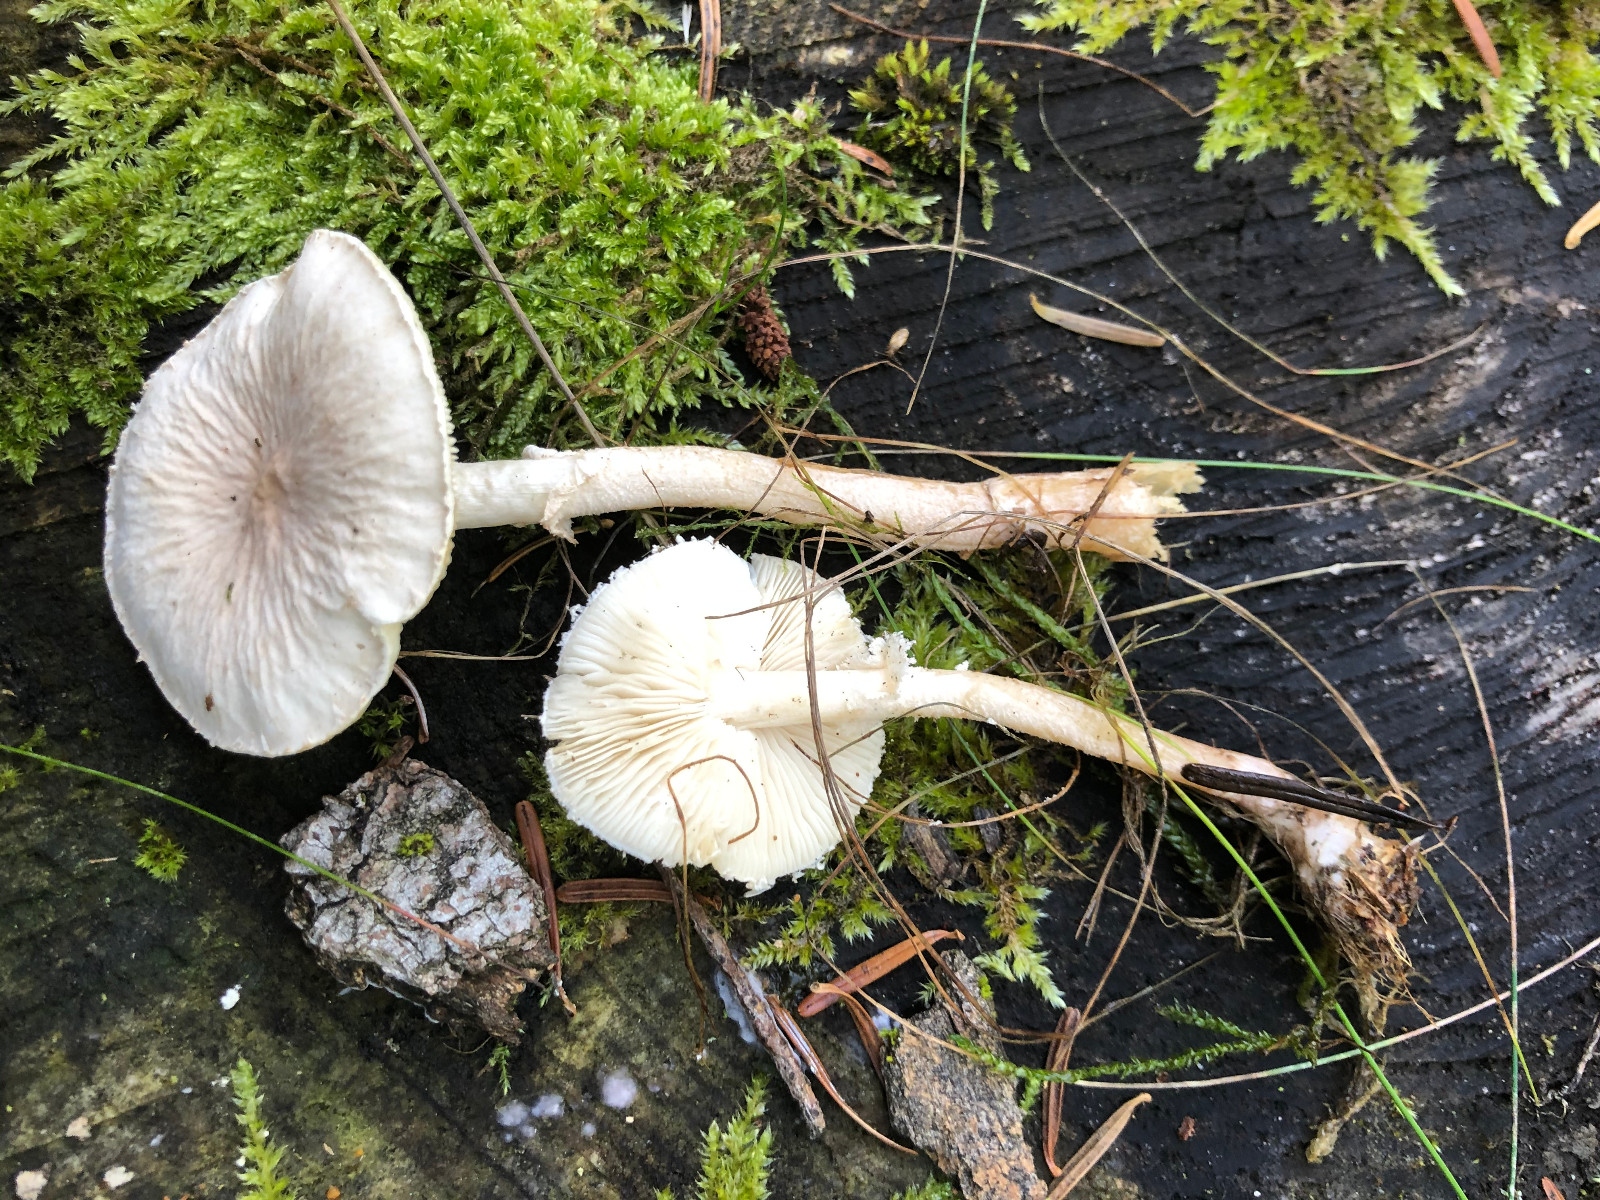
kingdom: Fungi
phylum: Basidiomycota
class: Agaricomycetes
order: Agaricales
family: Tricholomataceae
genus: Cystoderma
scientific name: Cystoderma
